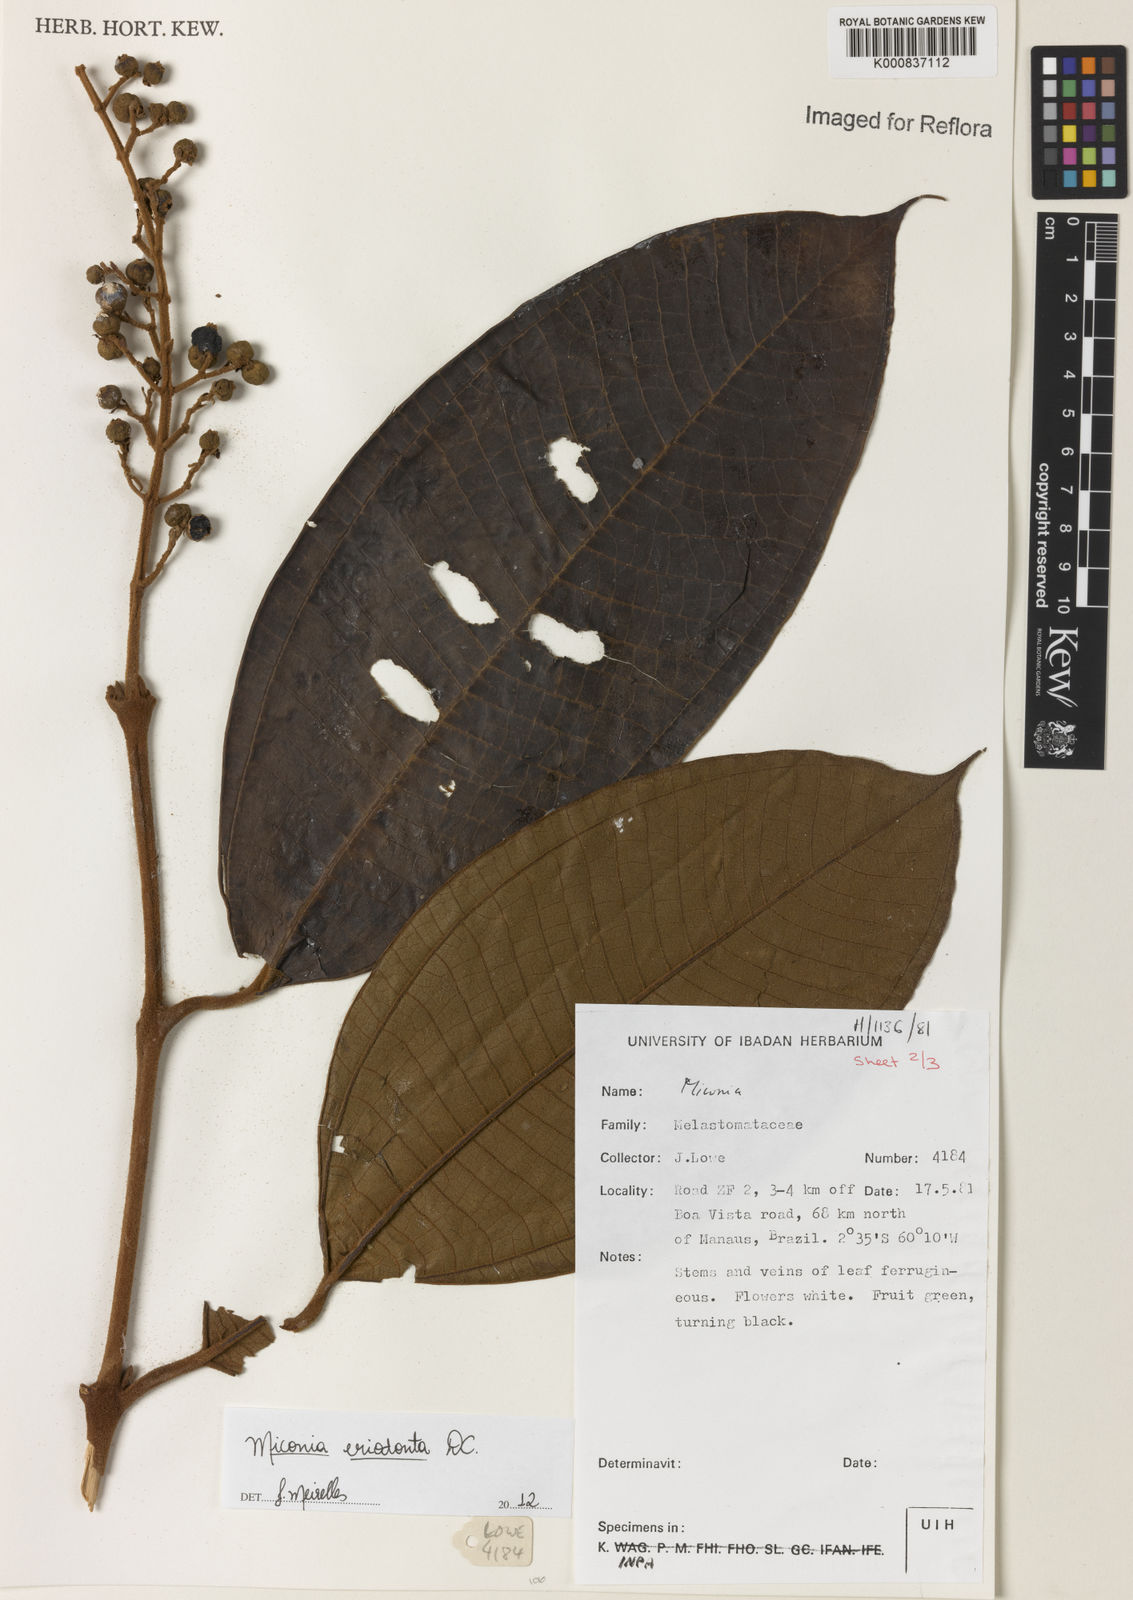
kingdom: Plantae
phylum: Tracheophyta
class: Magnoliopsida
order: Myrtales
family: Melastomataceae
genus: Miconia
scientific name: Miconia eriodonta
